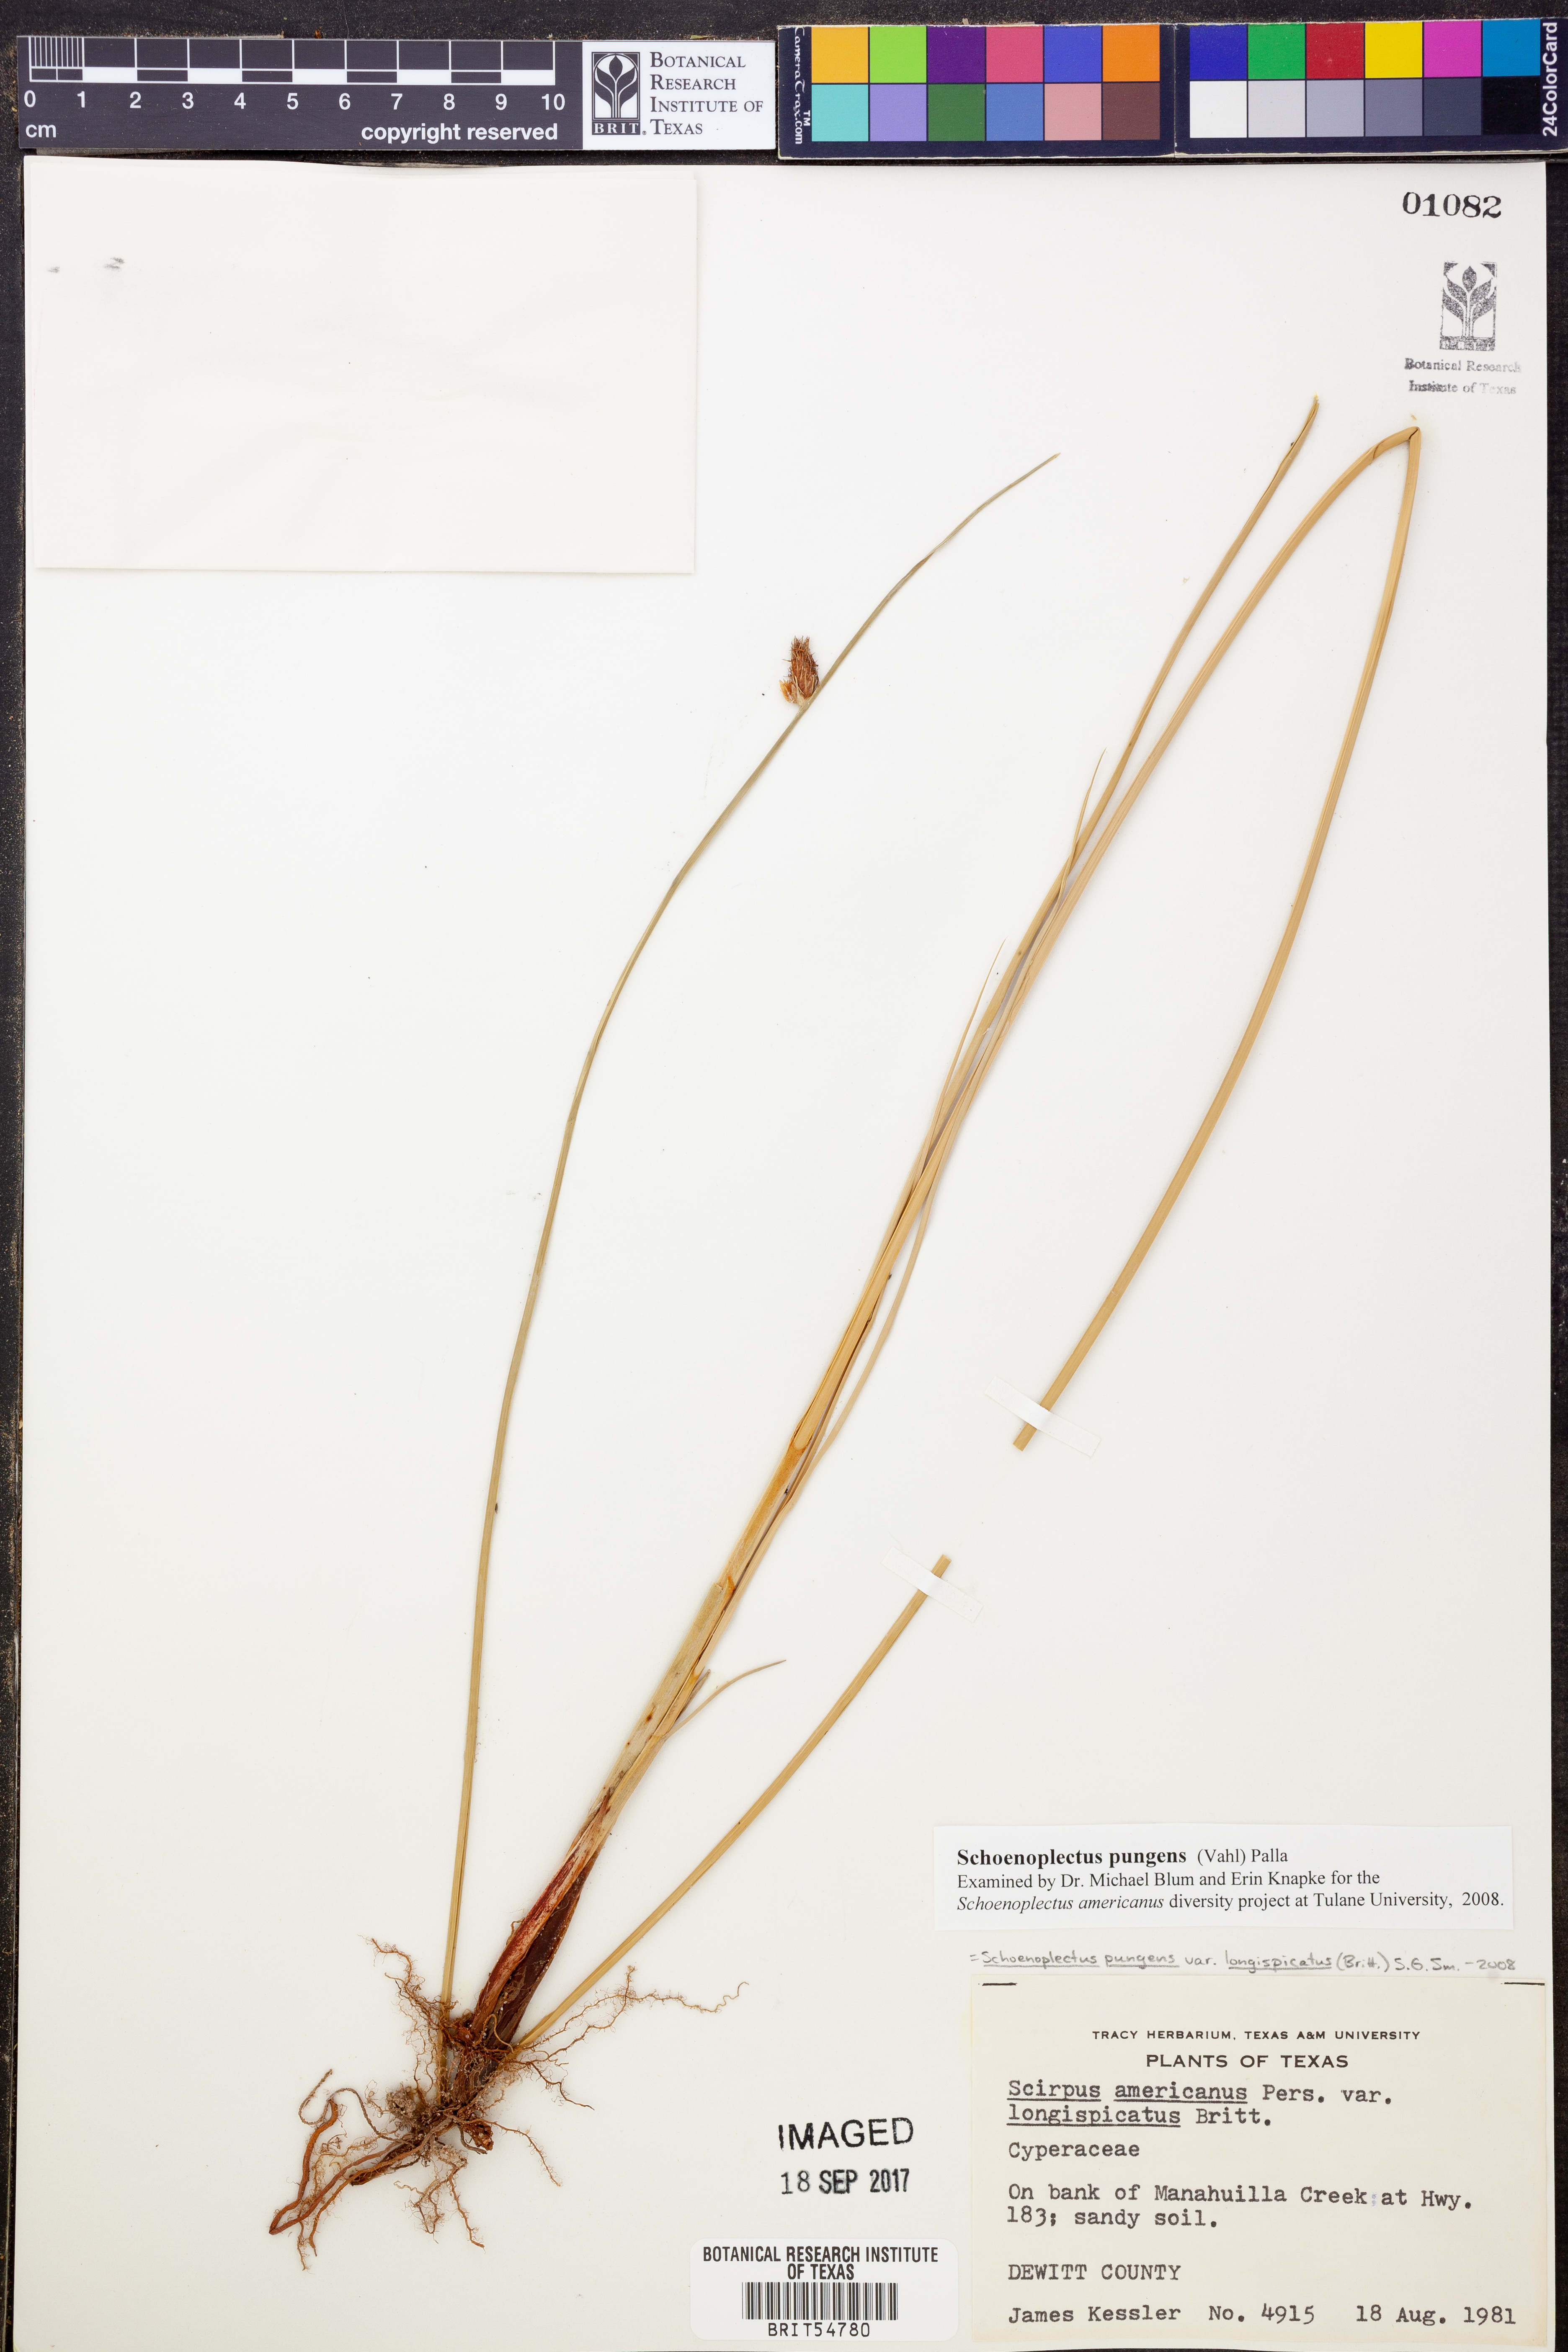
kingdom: Plantae
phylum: Tracheophyta
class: Liliopsida
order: Poales
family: Cyperaceae
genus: Schoenoplectus
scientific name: Schoenoplectus pungens
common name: Sharp club-rush
